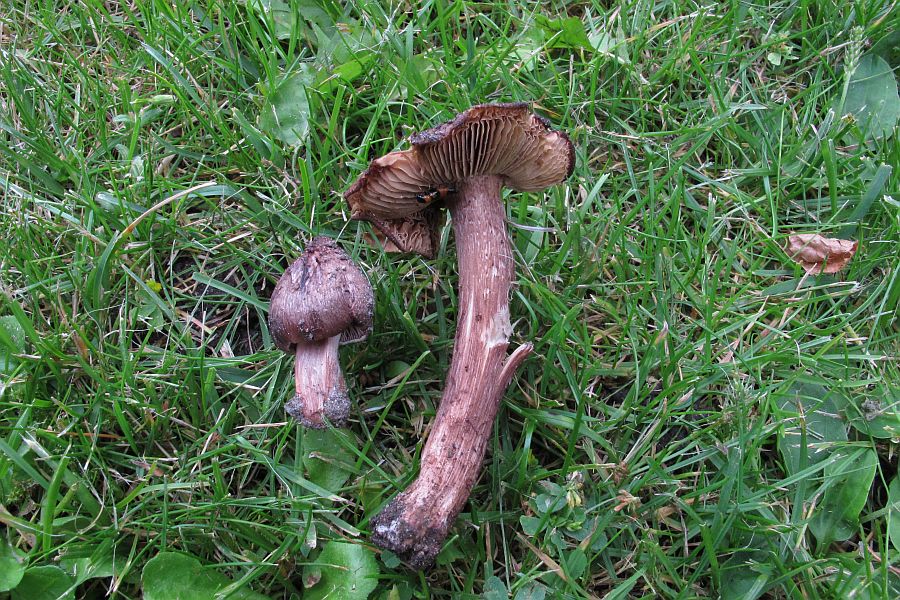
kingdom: Fungi
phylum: Basidiomycota
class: Agaricomycetes
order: Agaricales
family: Inocybaceae
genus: Inosperma
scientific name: Inosperma adaequatum
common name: vinrød trævlhat
